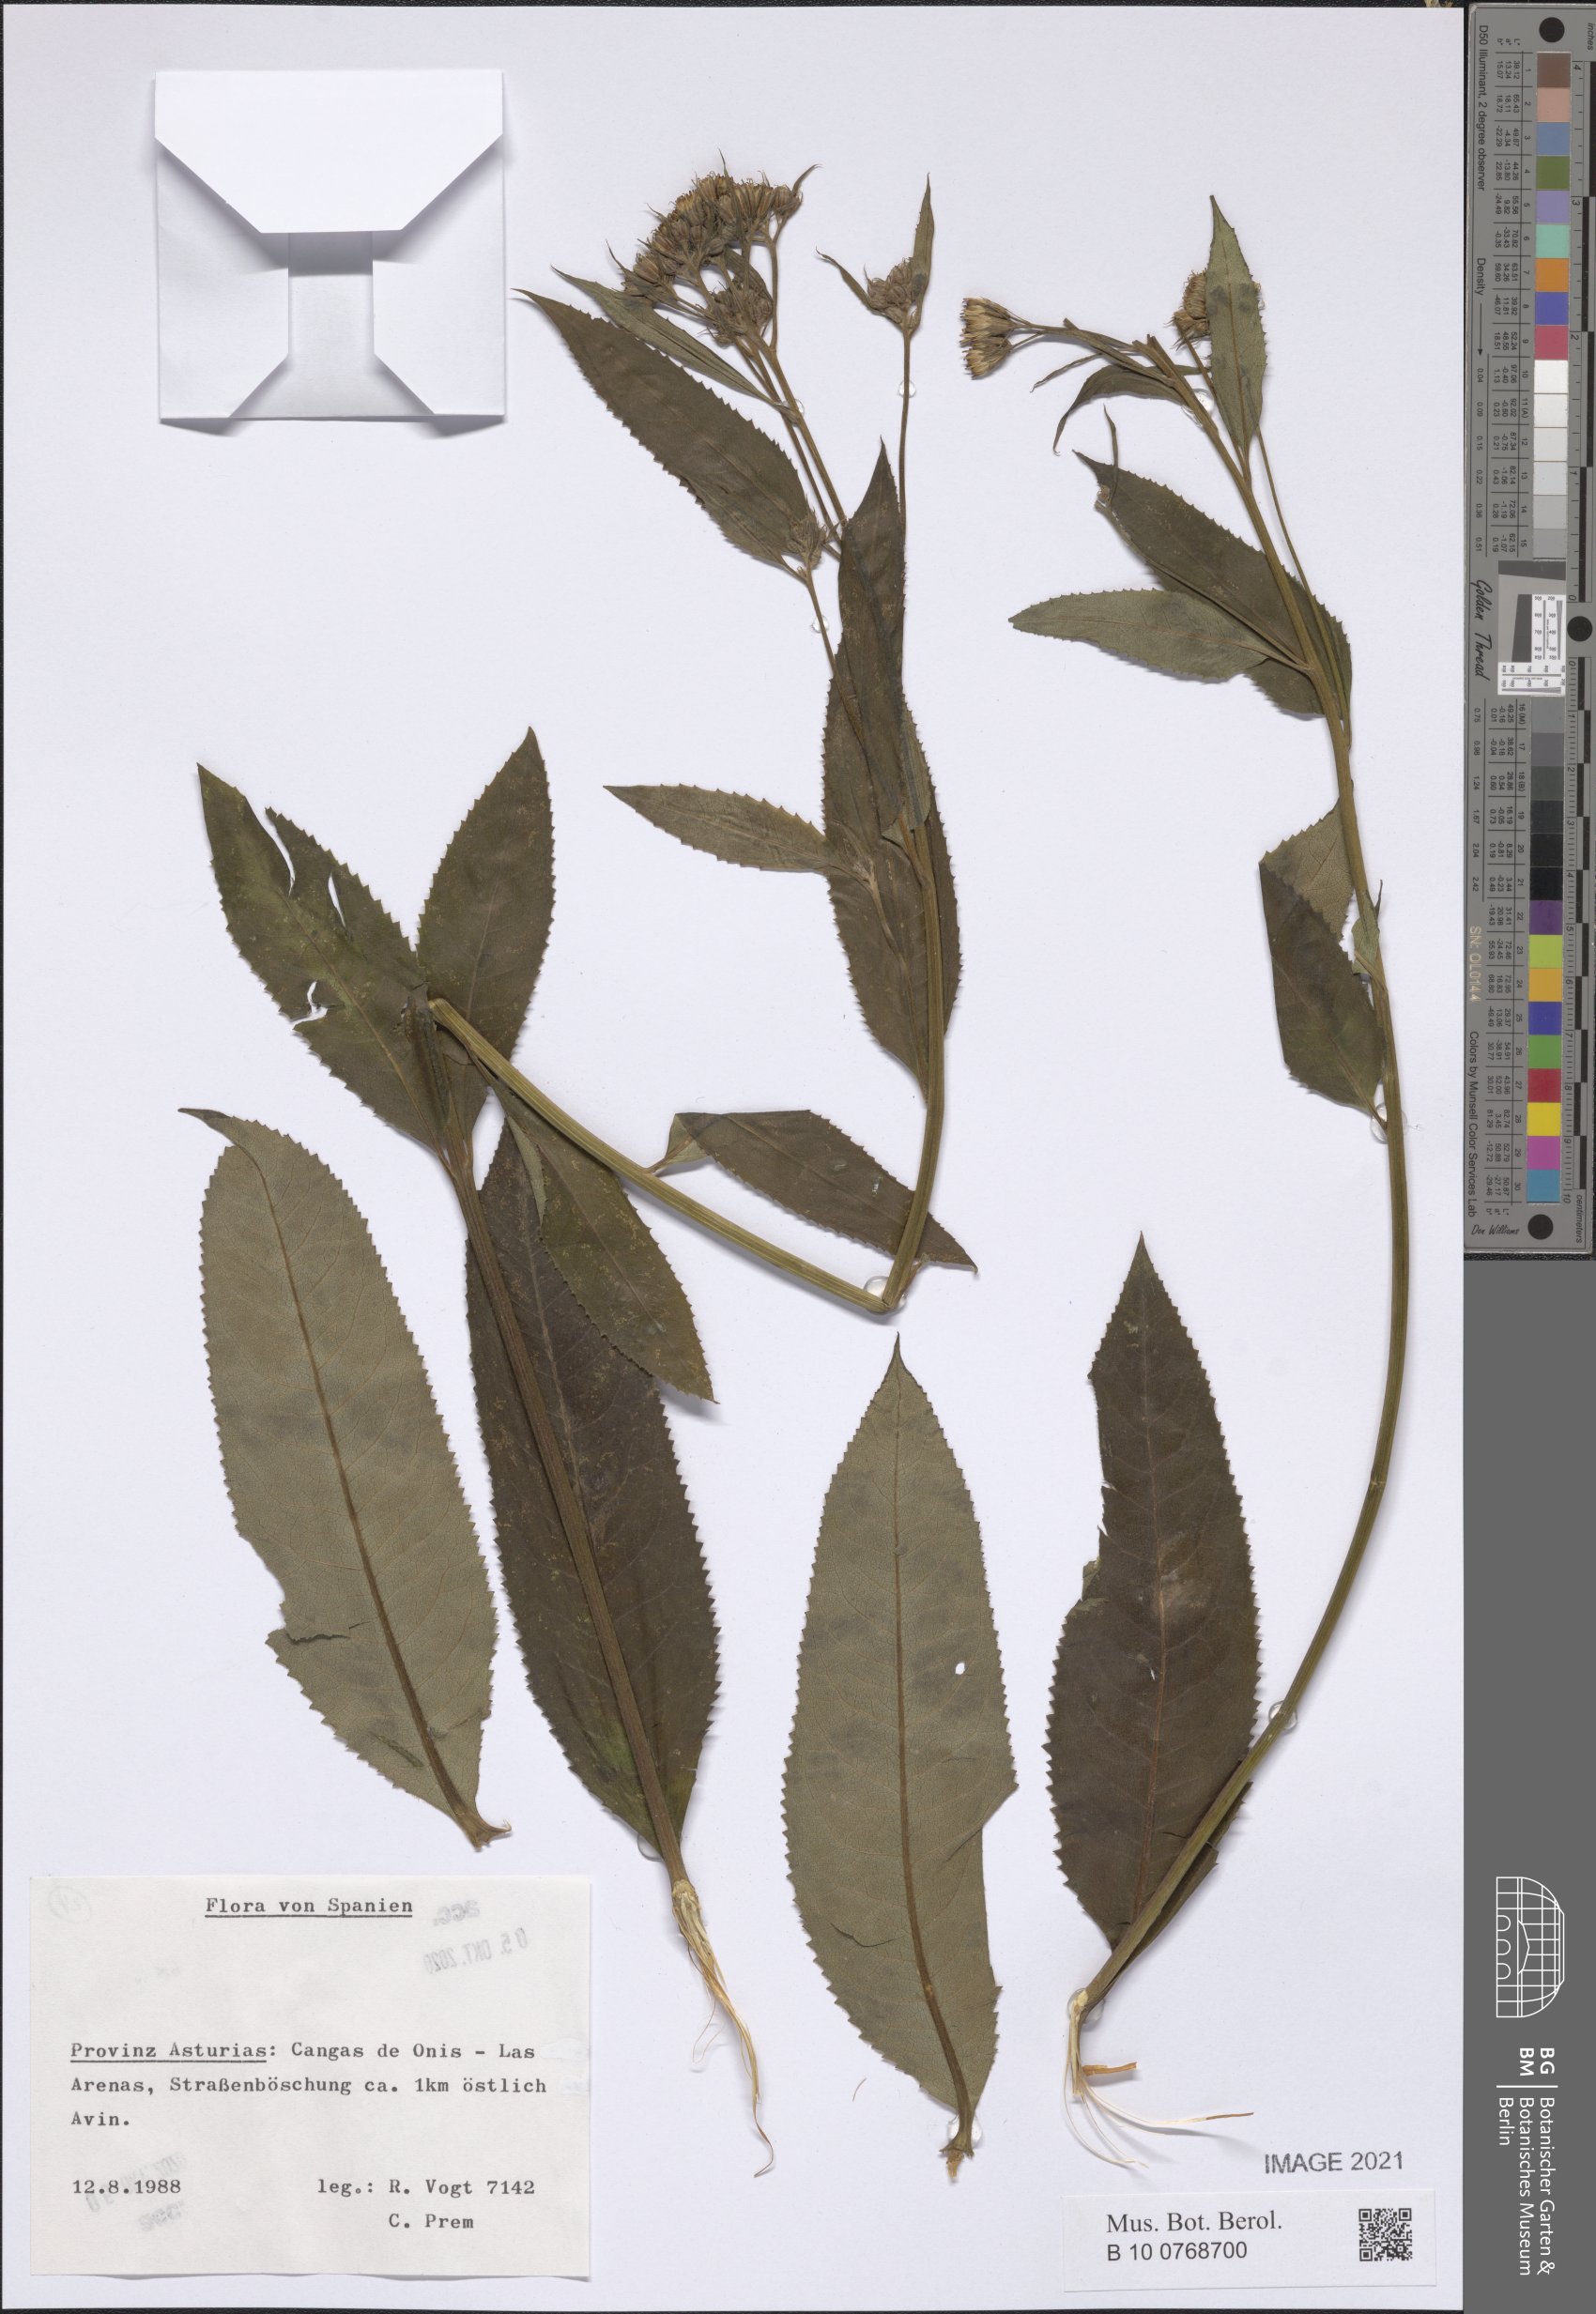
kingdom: Plantae
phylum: Tracheophyta
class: Magnoliopsida
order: Asterales
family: Asteraceae
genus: Senecio
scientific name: Senecio
